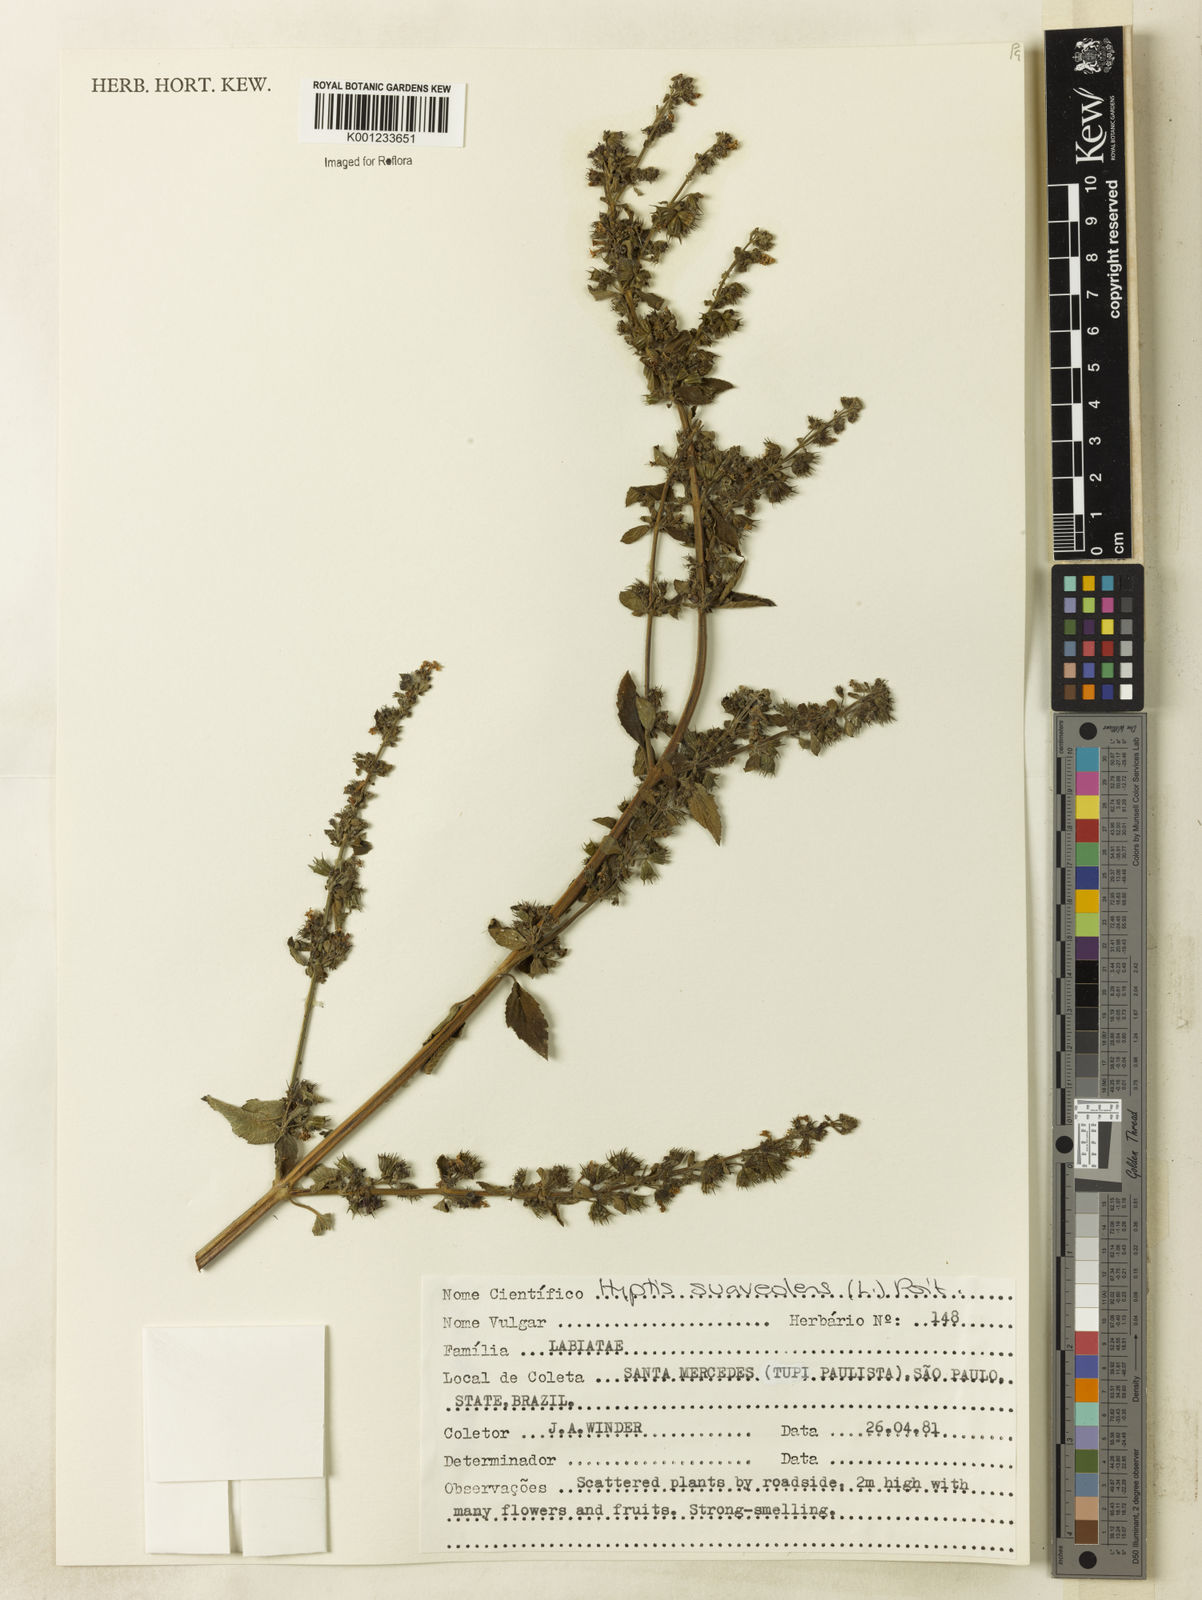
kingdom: Plantae
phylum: Tracheophyta
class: Magnoliopsida
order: Lamiales
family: Lamiaceae
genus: Mesosphaerum
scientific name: Mesosphaerum suaveolens
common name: Pignut
